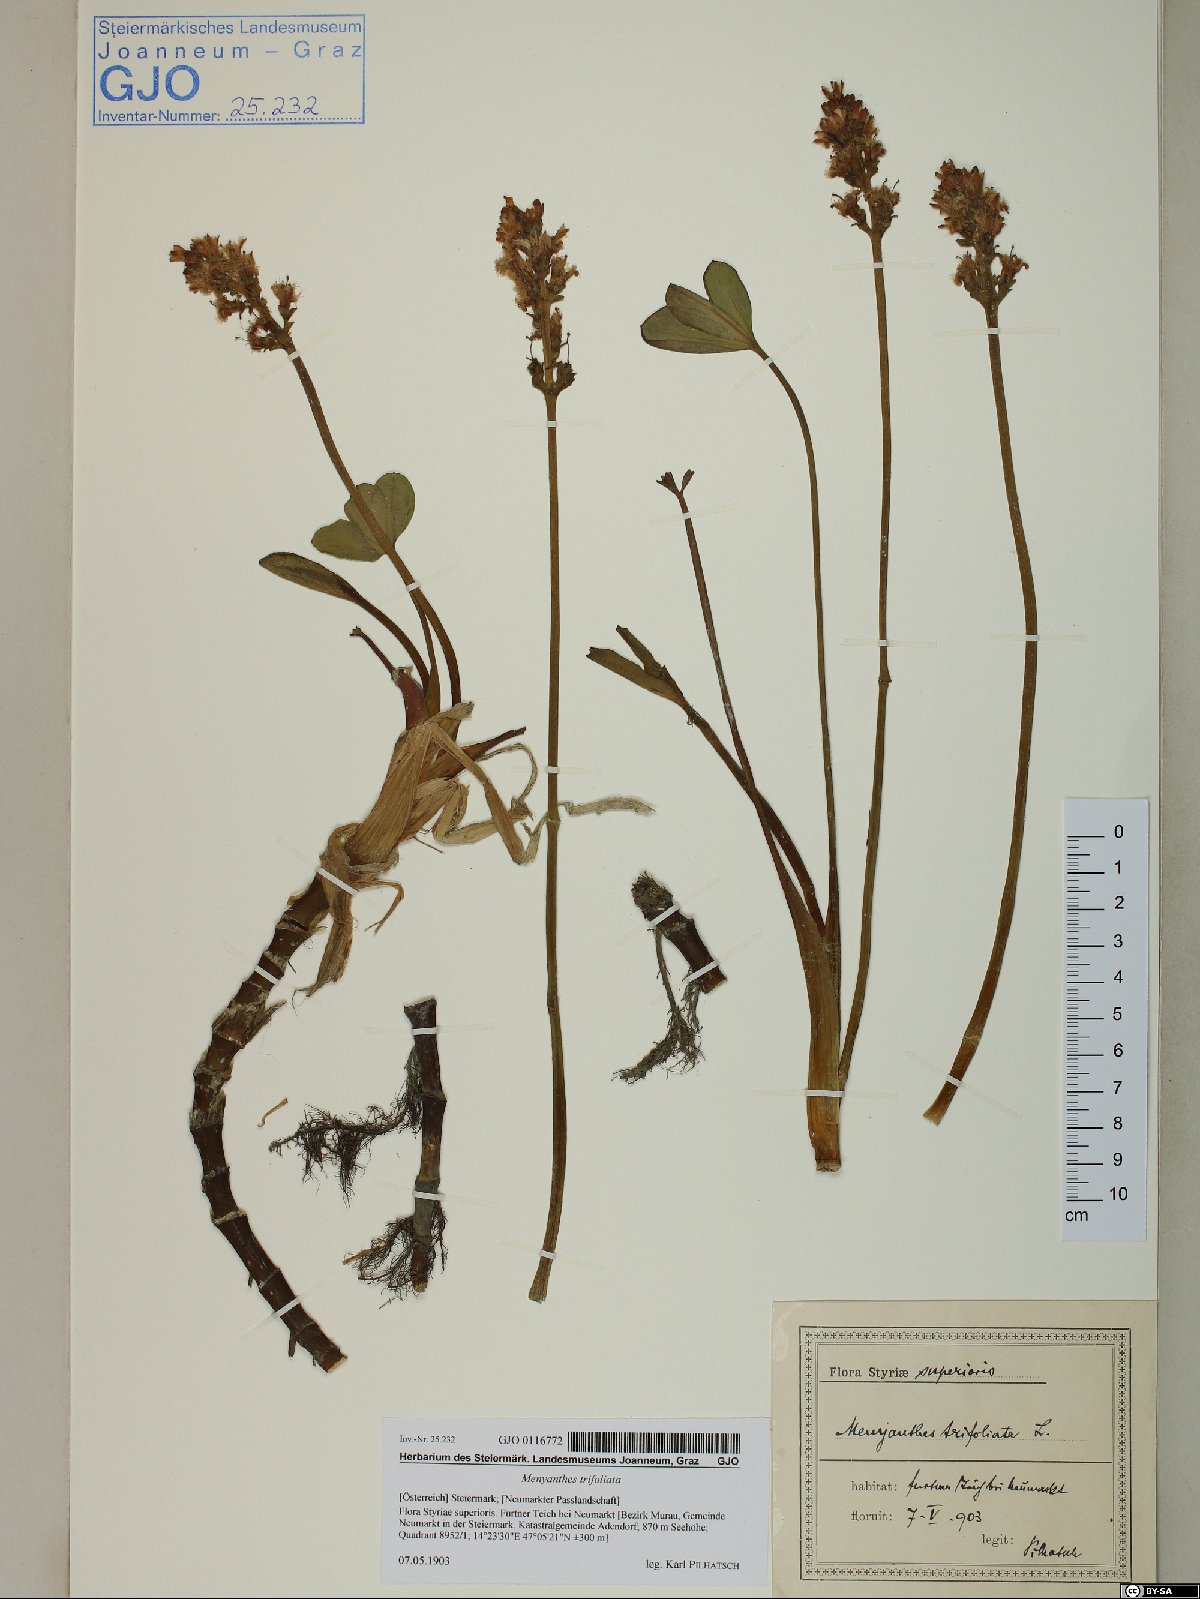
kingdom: Plantae
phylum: Tracheophyta
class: Magnoliopsida
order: Asterales
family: Menyanthaceae
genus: Menyanthes
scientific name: Menyanthes trifoliata
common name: Bogbean
